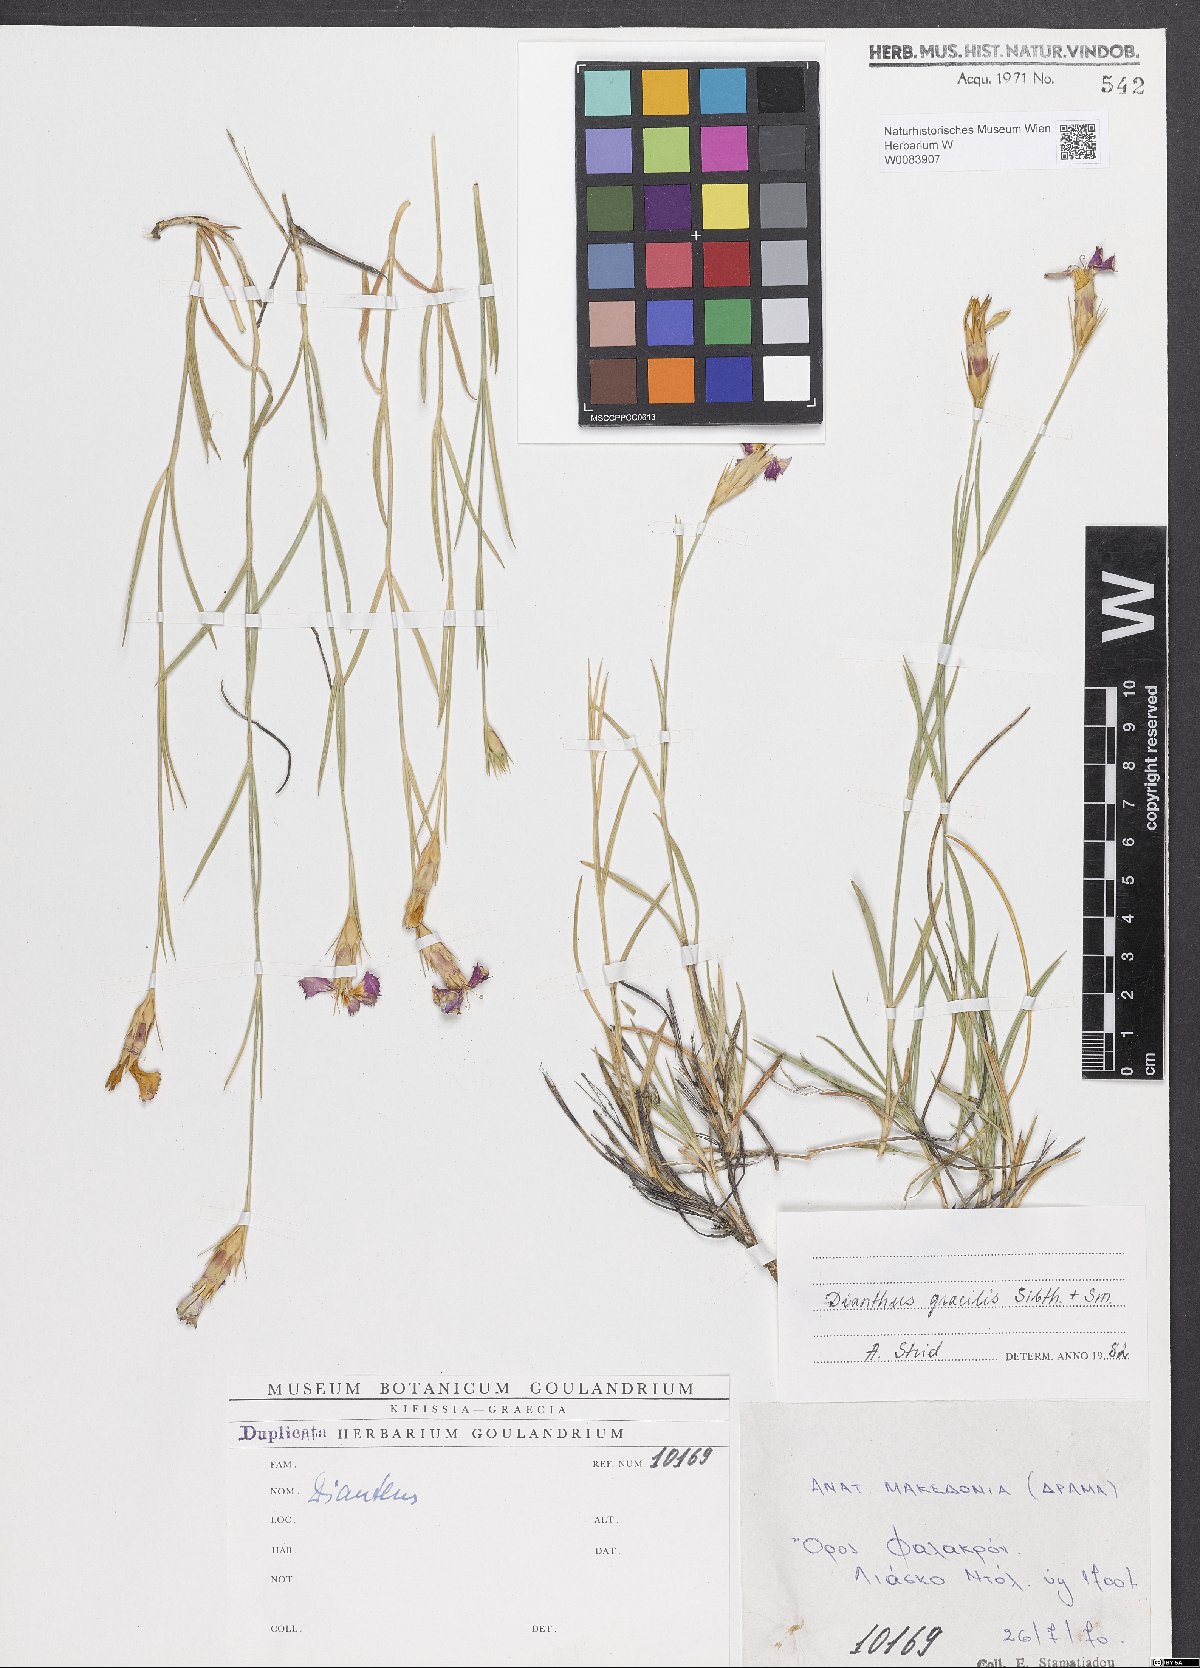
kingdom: Plantae
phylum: Tracheophyta
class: Magnoliopsida
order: Caryophyllales
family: Caryophyllaceae
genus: Dianthus
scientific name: Dianthus gracilis
